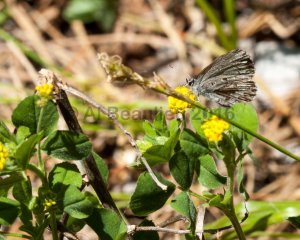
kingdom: Animalia
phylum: Arthropoda
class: Insecta
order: Lepidoptera
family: Lycaenidae
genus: Celastrina
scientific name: Celastrina lucia
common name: Northern Spring Azure
